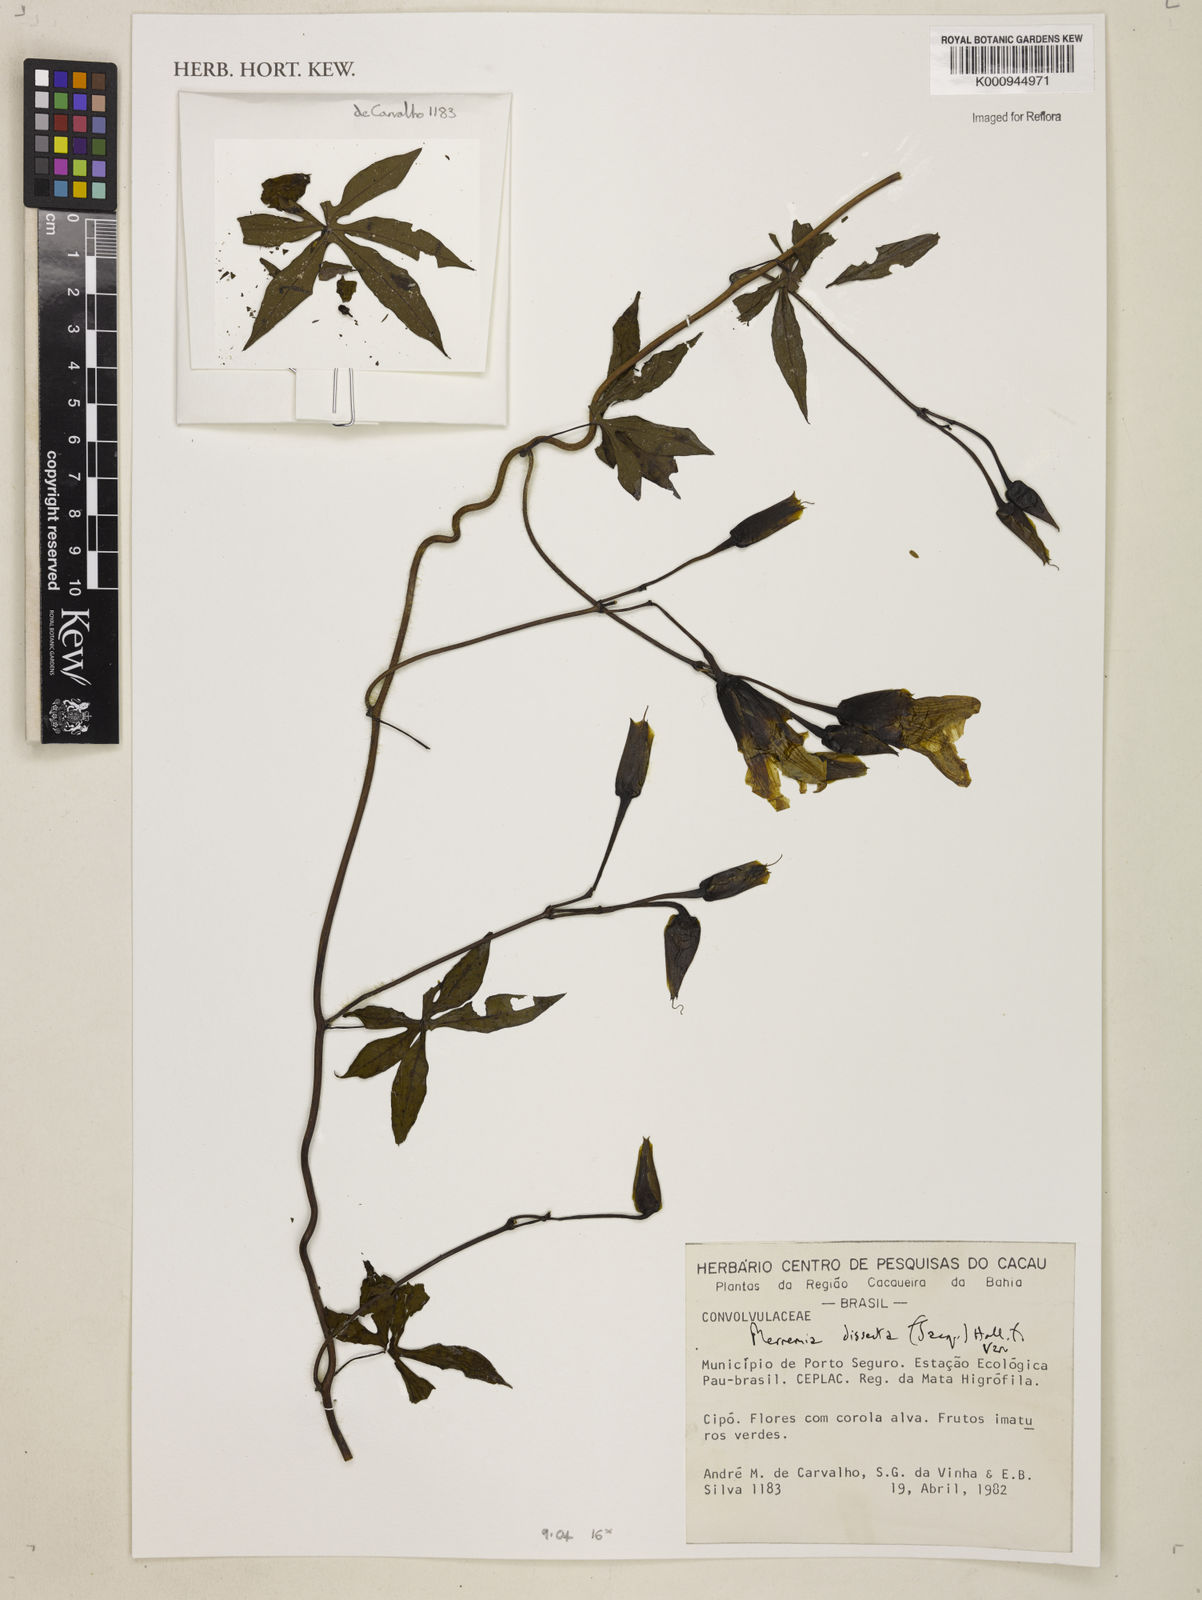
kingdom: Plantae
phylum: Tracheophyta
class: Magnoliopsida
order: Solanales
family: Convolvulaceae
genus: Distimake
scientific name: Distimake dissectus
